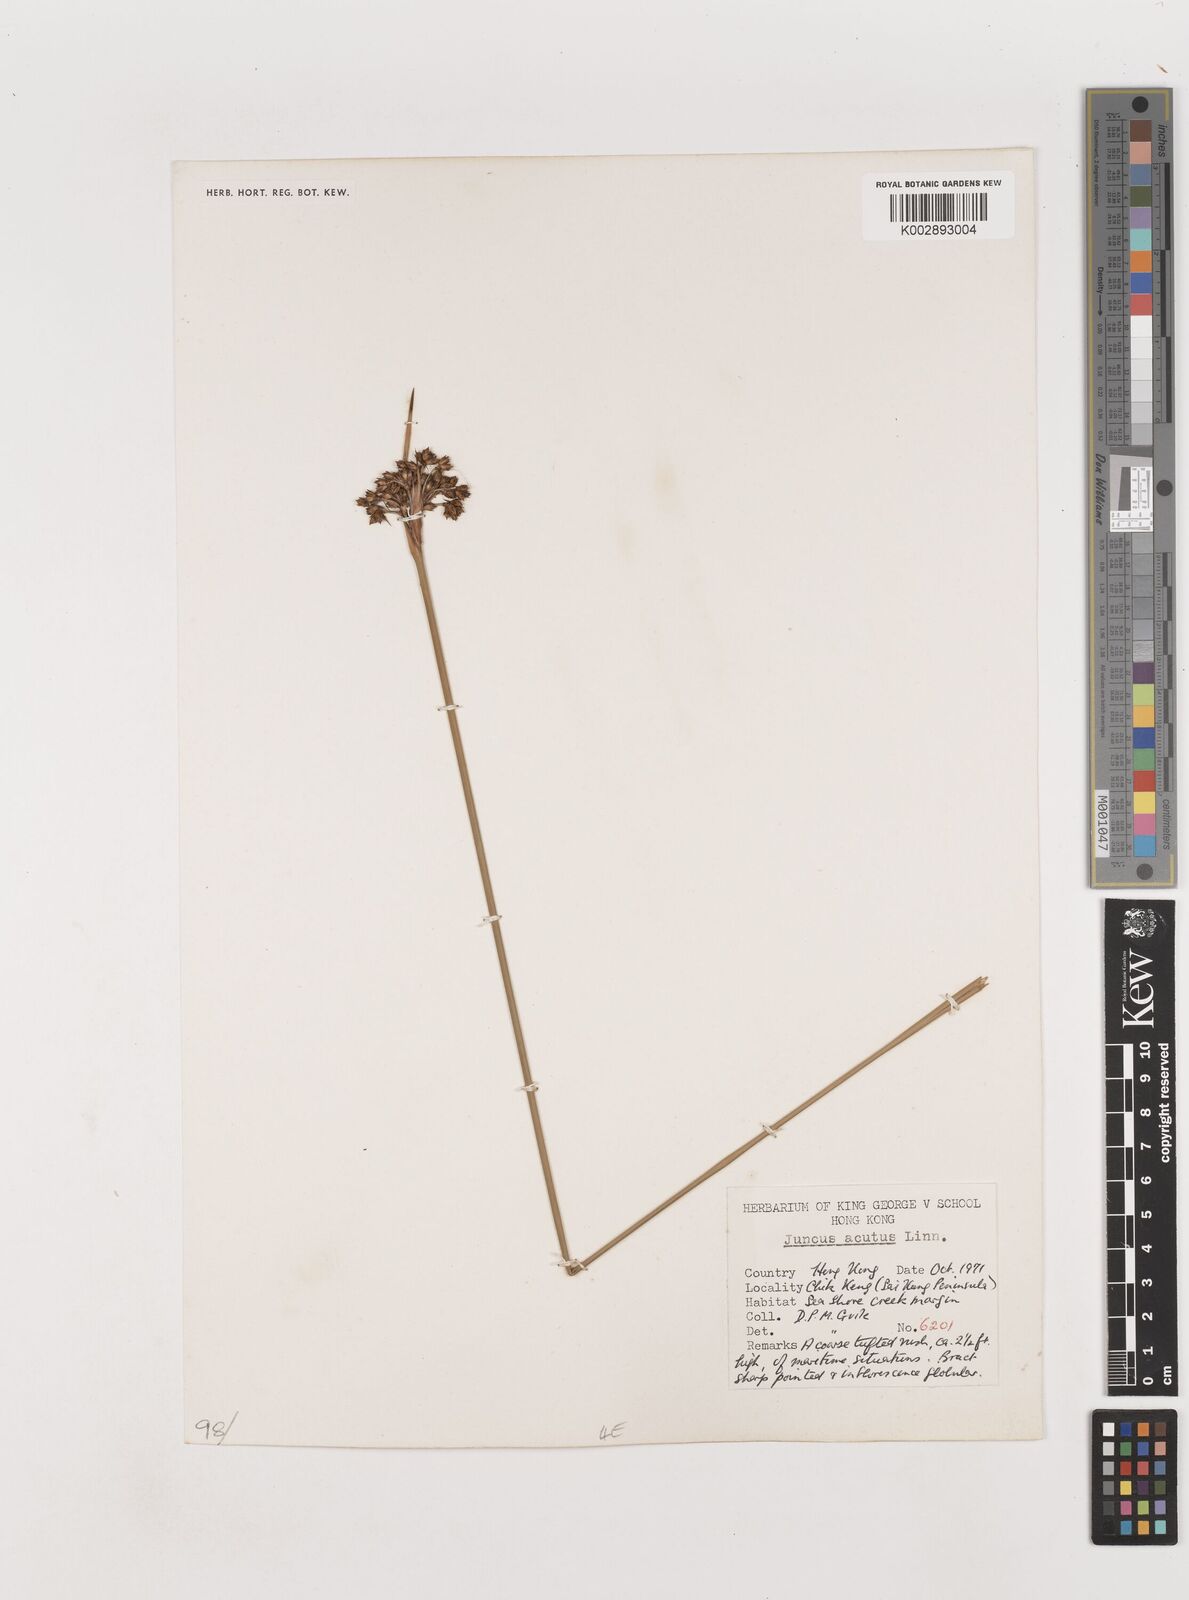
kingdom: Plantae
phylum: Tracheophyta
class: Liliopsida
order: Poales
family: Juncaceae
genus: Juncus
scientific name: Juncus acutus
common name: Sharp rush
